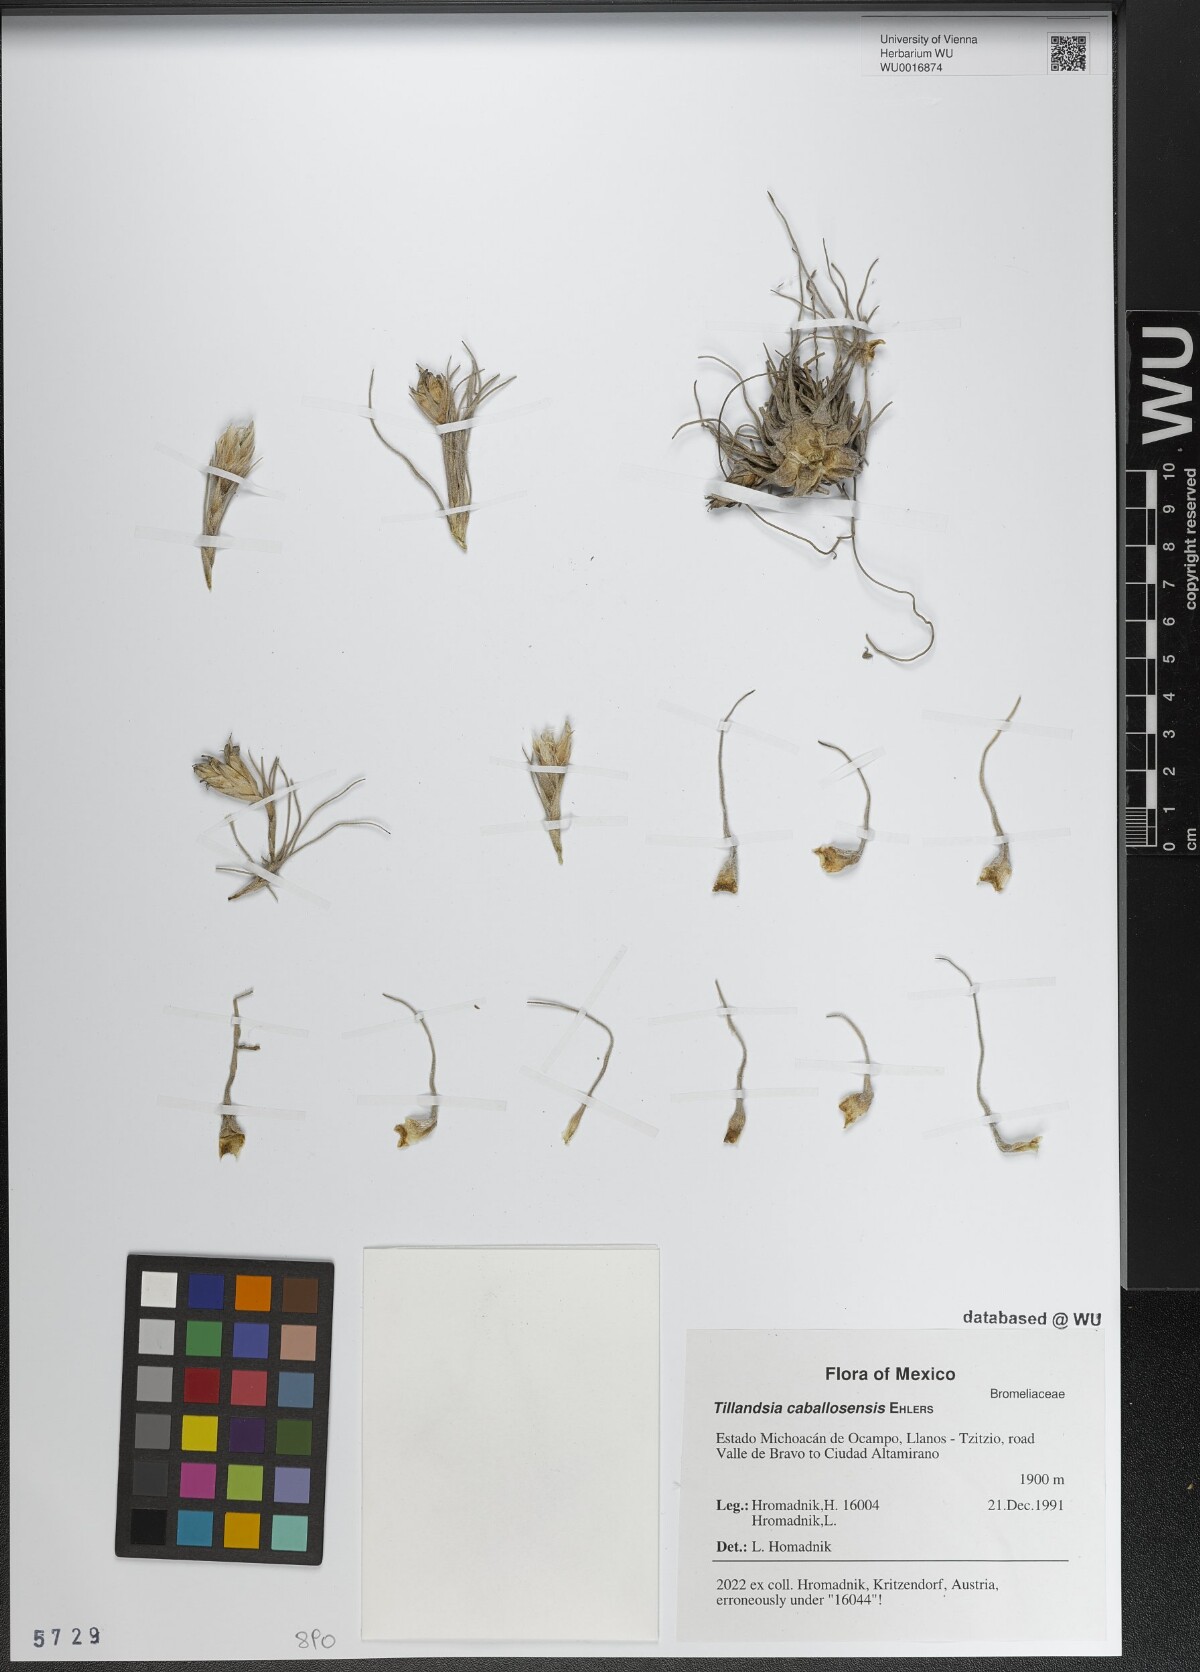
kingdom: Plantae
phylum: Tracheophyta
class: Liliopsida
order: Poales
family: Bromeliaceae
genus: Tillandsia
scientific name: Tillandsia caballosensis
